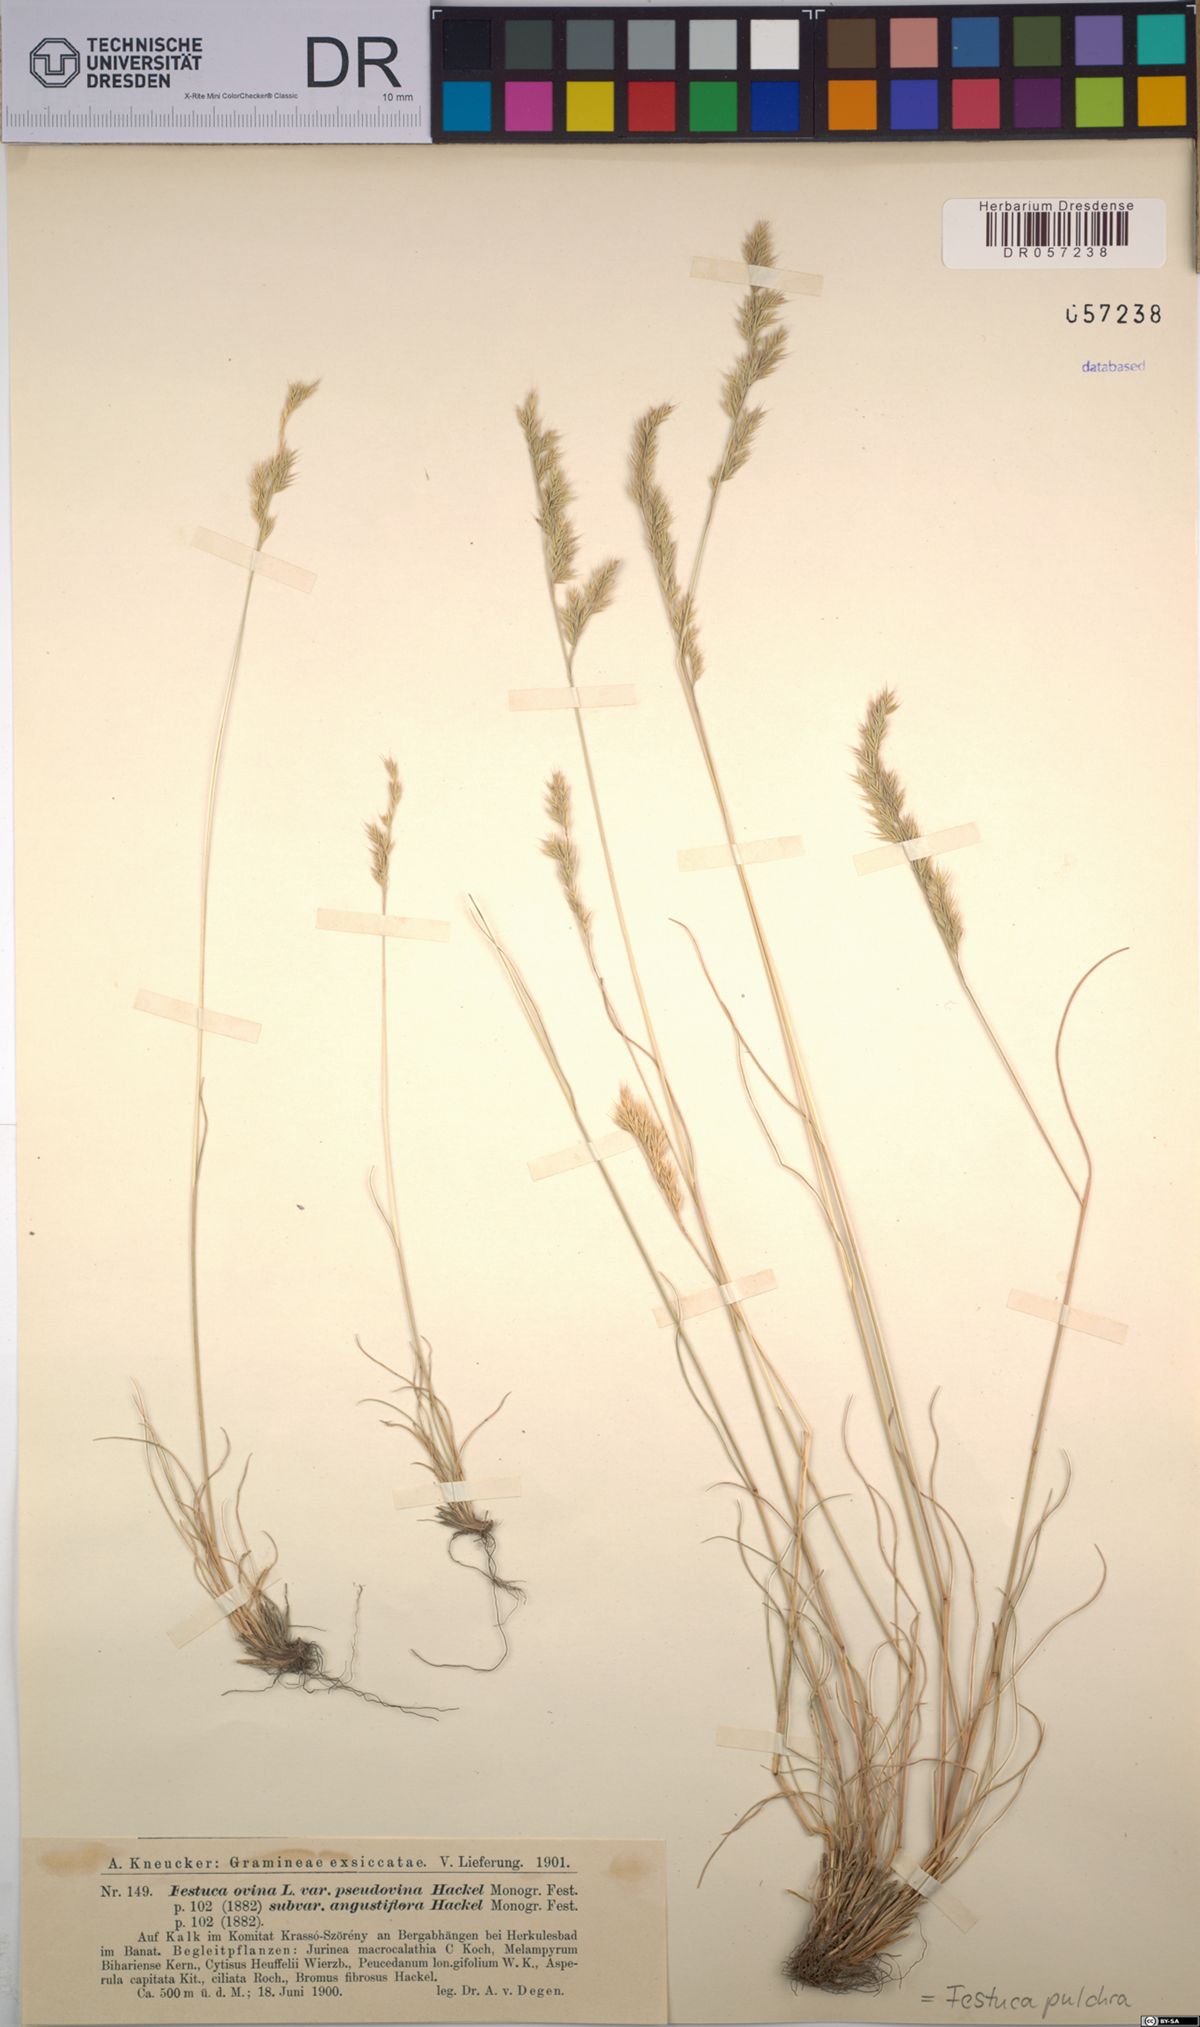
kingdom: Plantae
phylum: Tracheophyta
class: Liliopsida
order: Poales
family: Poaceae
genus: Festuca
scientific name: Festuca pulchra
